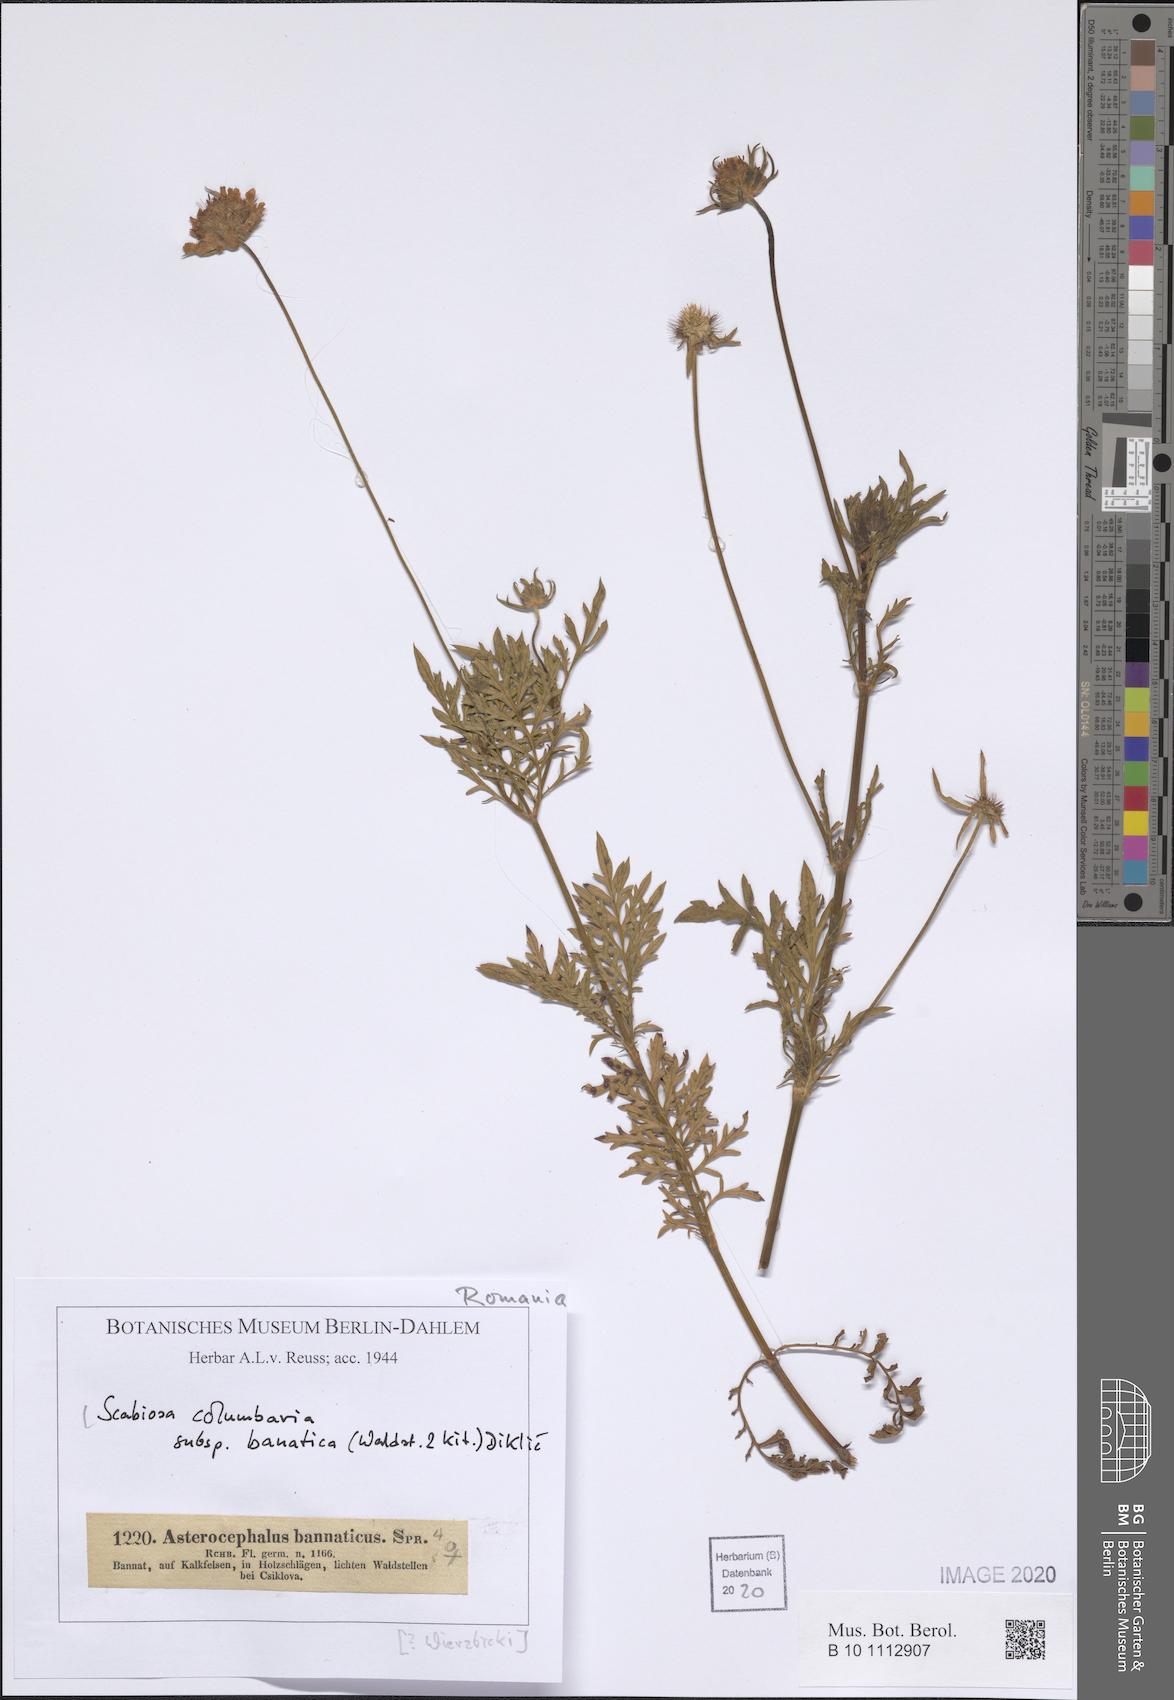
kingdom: Plantae
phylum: Tracheophyta
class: Magnoliopsida
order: Dipsacales
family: Caprifoliaceae
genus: Scabiosa
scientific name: Scabiosa columbaria
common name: Small scabious
